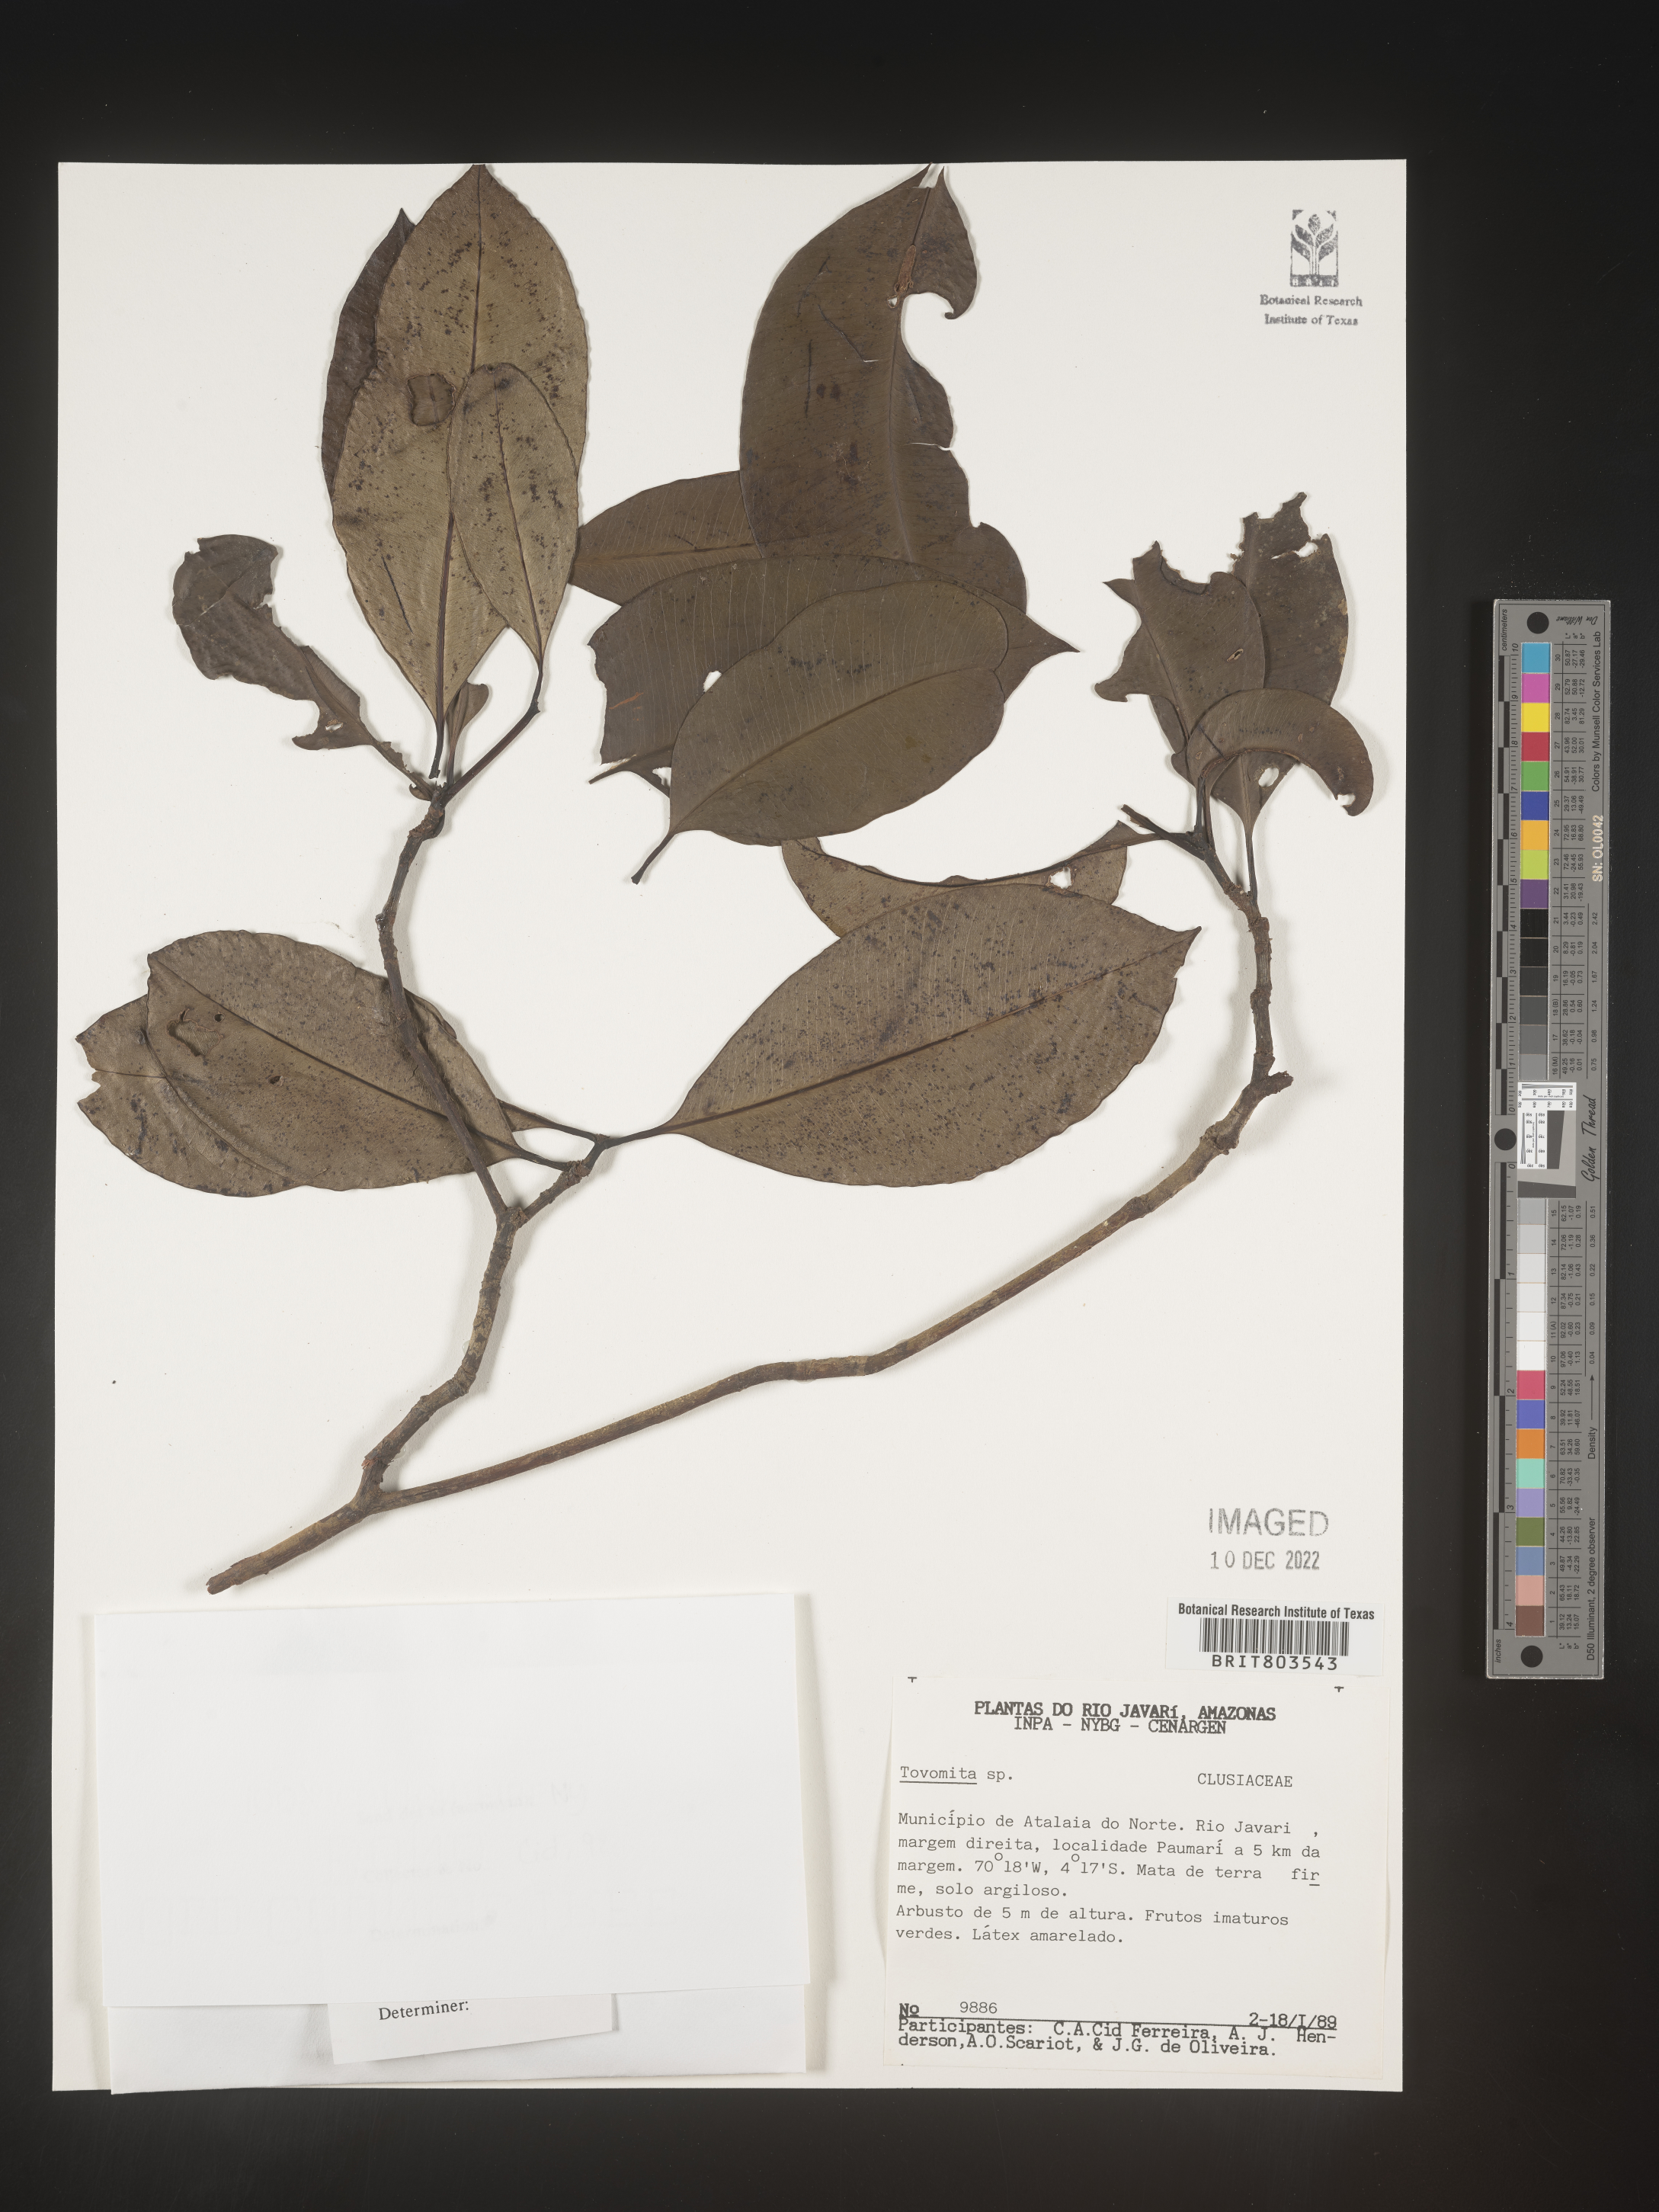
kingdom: Plantae
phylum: Tracheophyta
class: Magnoliopsida
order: Malpighiales
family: Clusiaceae
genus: Tovomita
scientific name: Tovomita
